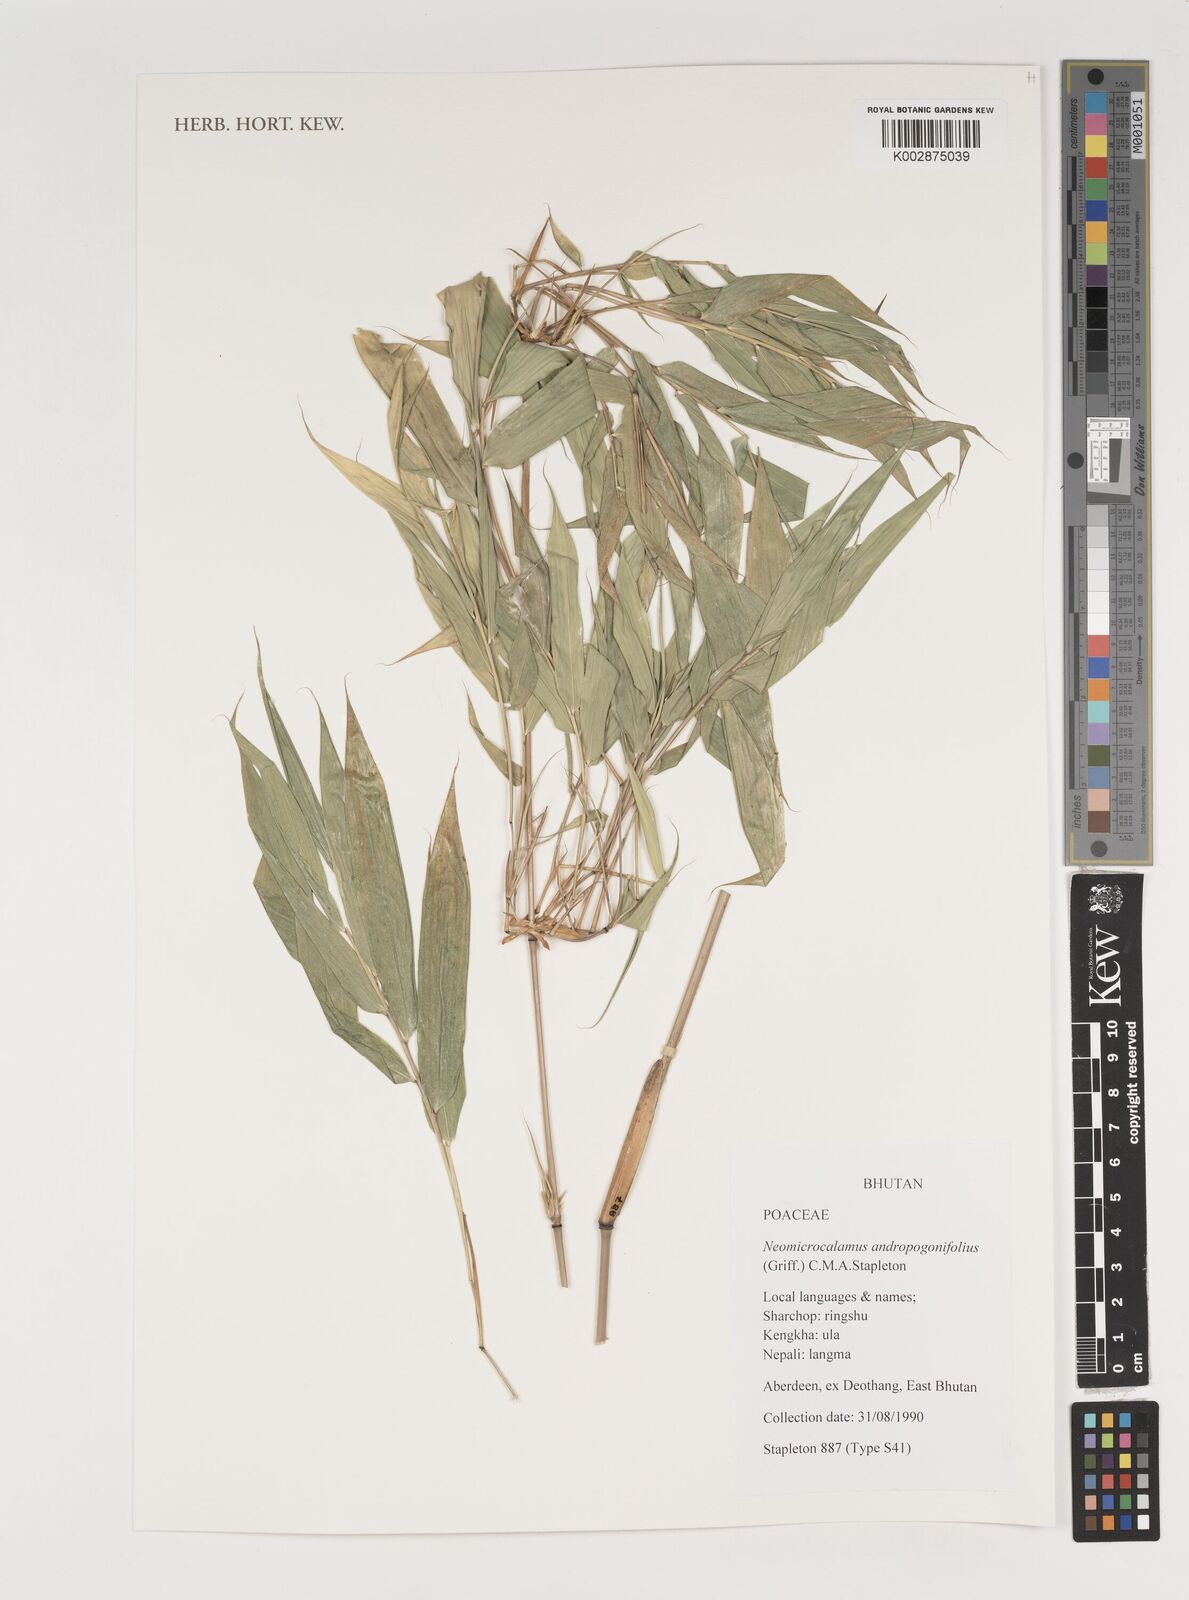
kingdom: Plantae
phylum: Tracheophyta
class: Liliopsida
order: Poales
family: Poaceae
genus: Neomicrocalamus
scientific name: Neomicrocalamus andropogonifolius
